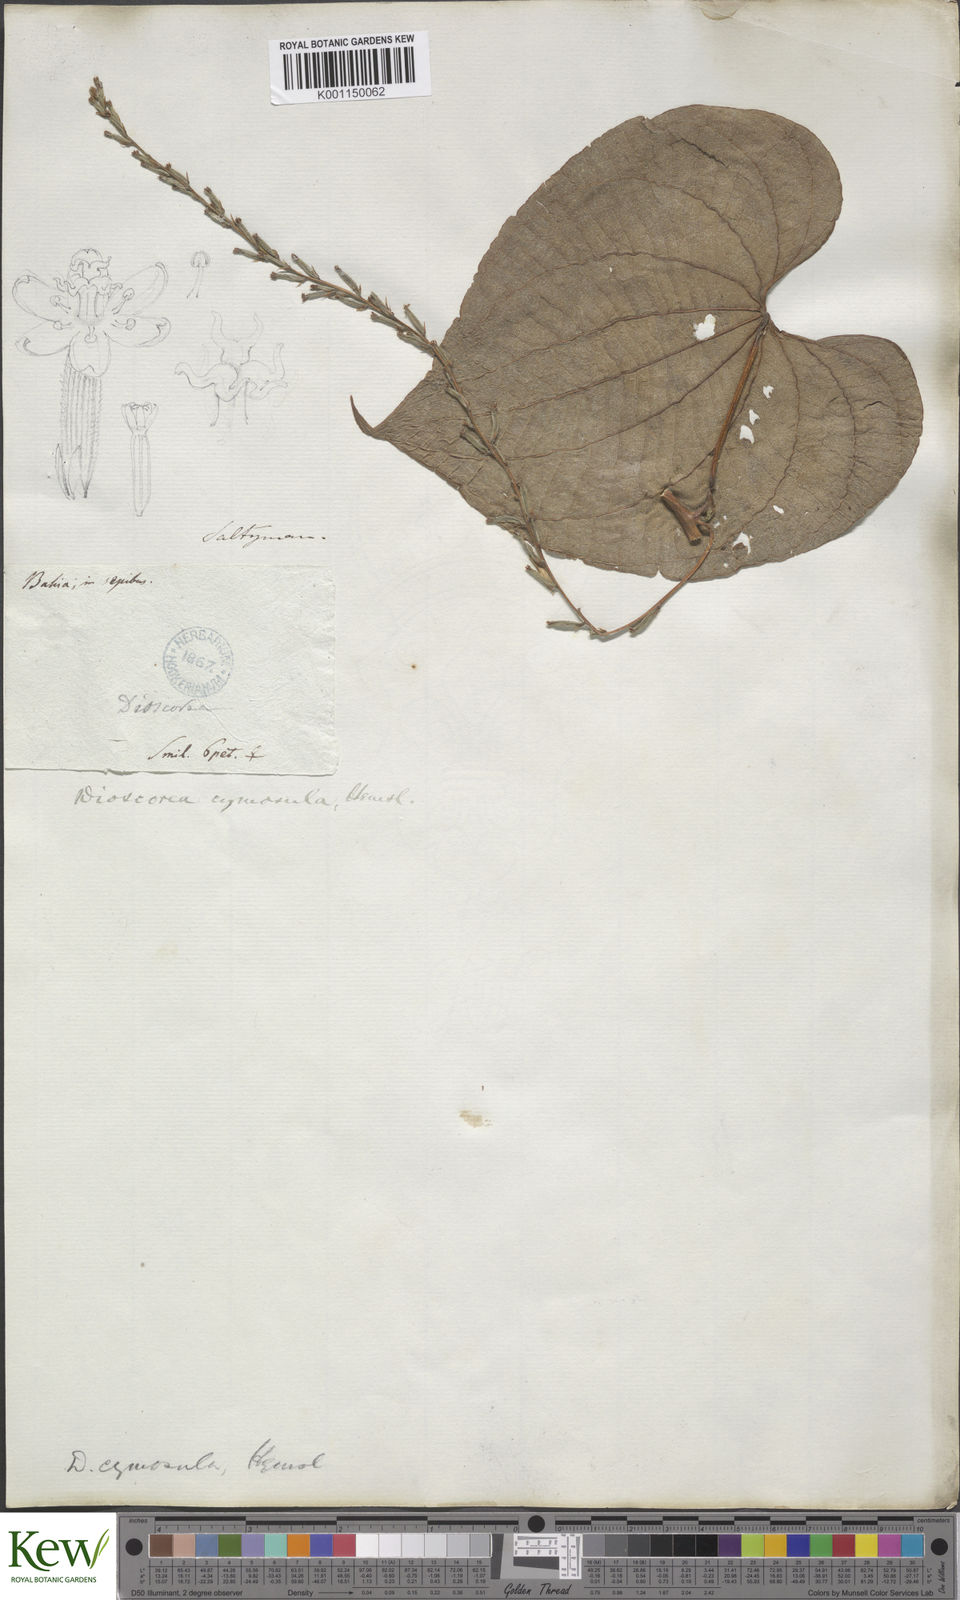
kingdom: Plantae
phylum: Tracheophyta
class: Liliopsida
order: Dioscoreales
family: Dioscoreaceae
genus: Dioscorea
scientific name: Dioscorea stegelmanniana
